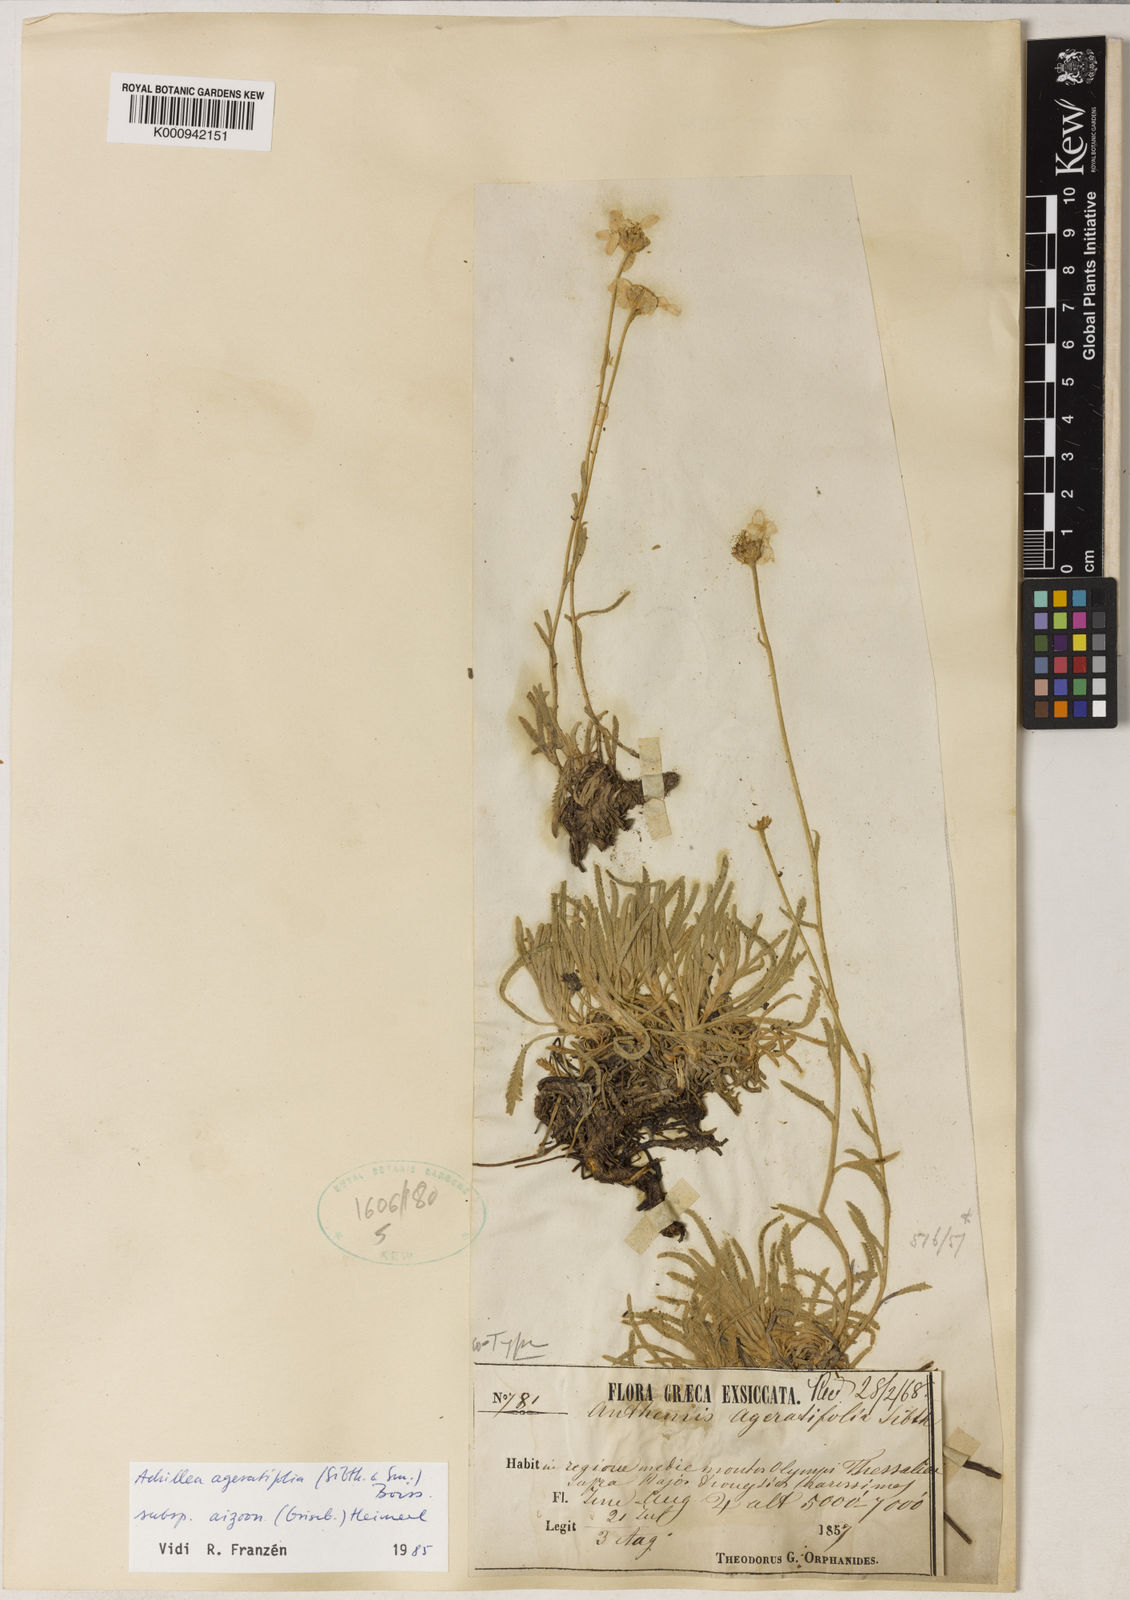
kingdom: Plantae
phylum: Tracheophyta
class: Magnoliopsida
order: Asterales
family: Asteraceae
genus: Achillea
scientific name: Achillea
